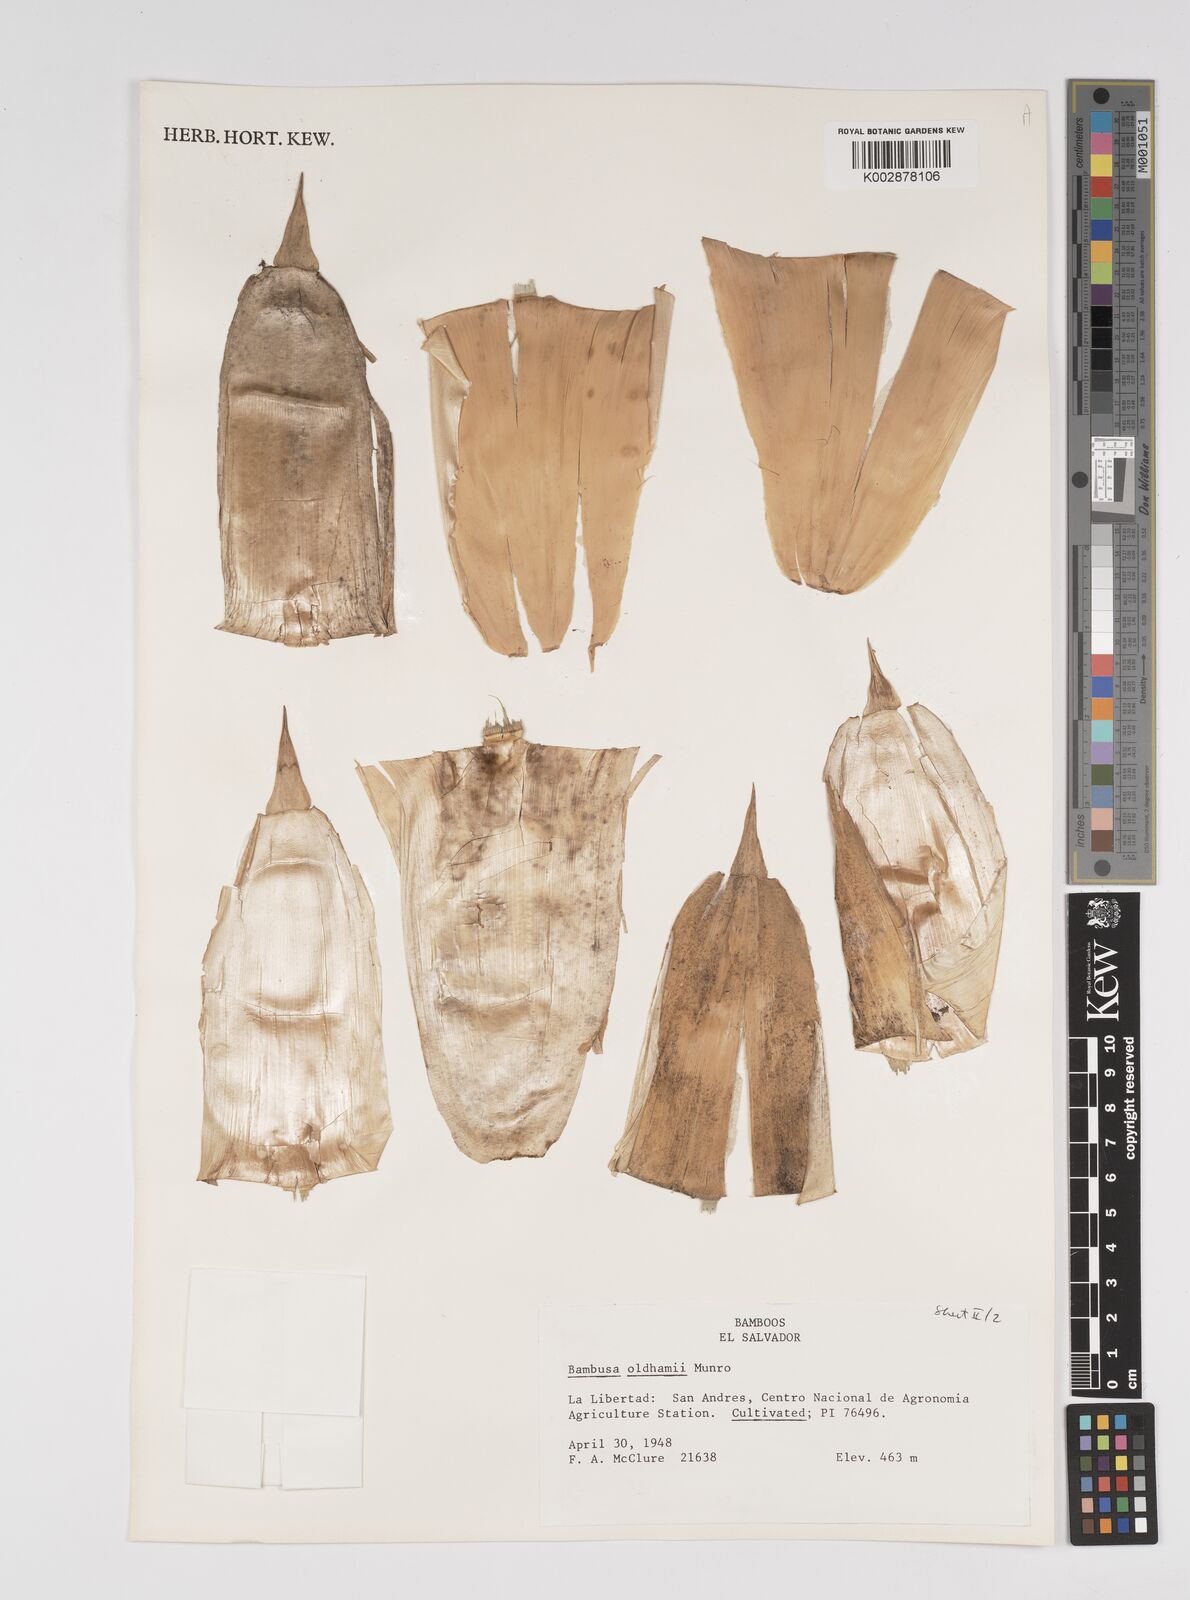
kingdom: Plantae
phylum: Tracheophyta
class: Liliopsida
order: Poales
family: Poaceae
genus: Bambusa
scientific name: Bambusa oldhamii
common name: Giant timber bamboo
